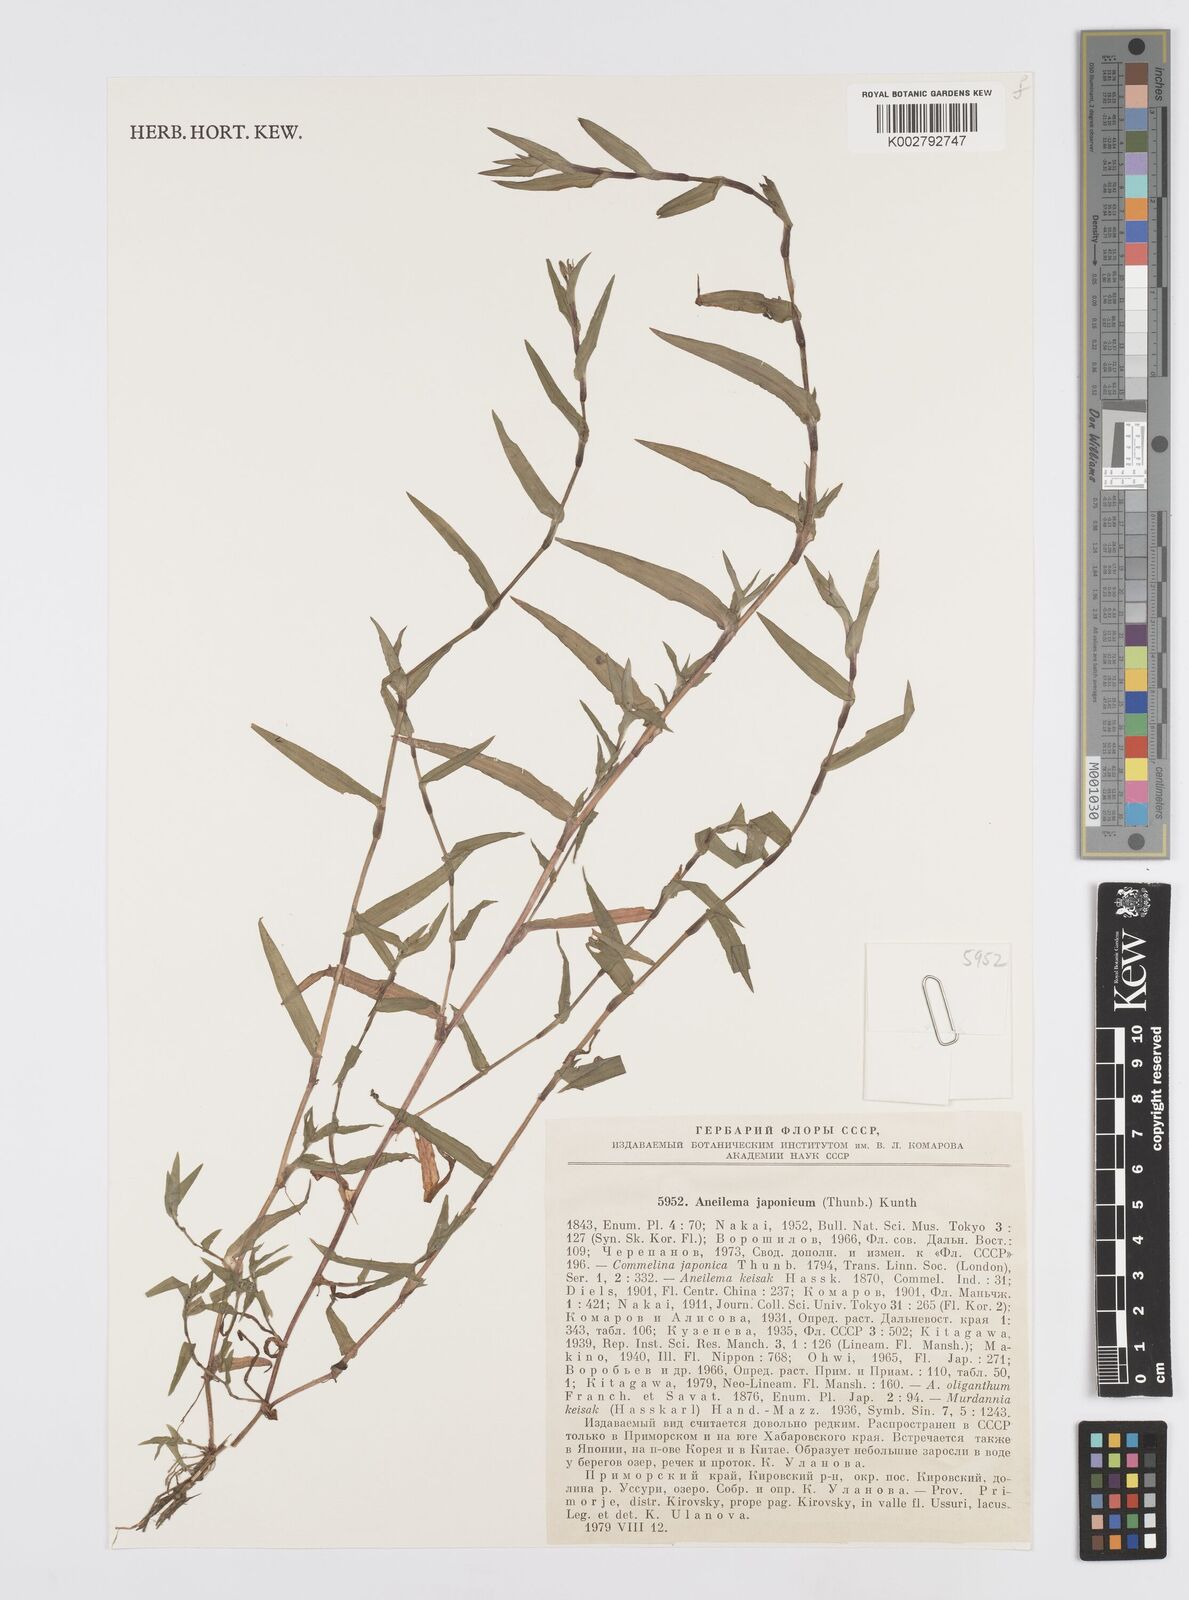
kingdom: Plantae
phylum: Tracheophyta
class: Liliopsida
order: Commelinales
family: Commelinaceae
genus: Murdannia
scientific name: Murdannia keisak
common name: Wartremoving herb
